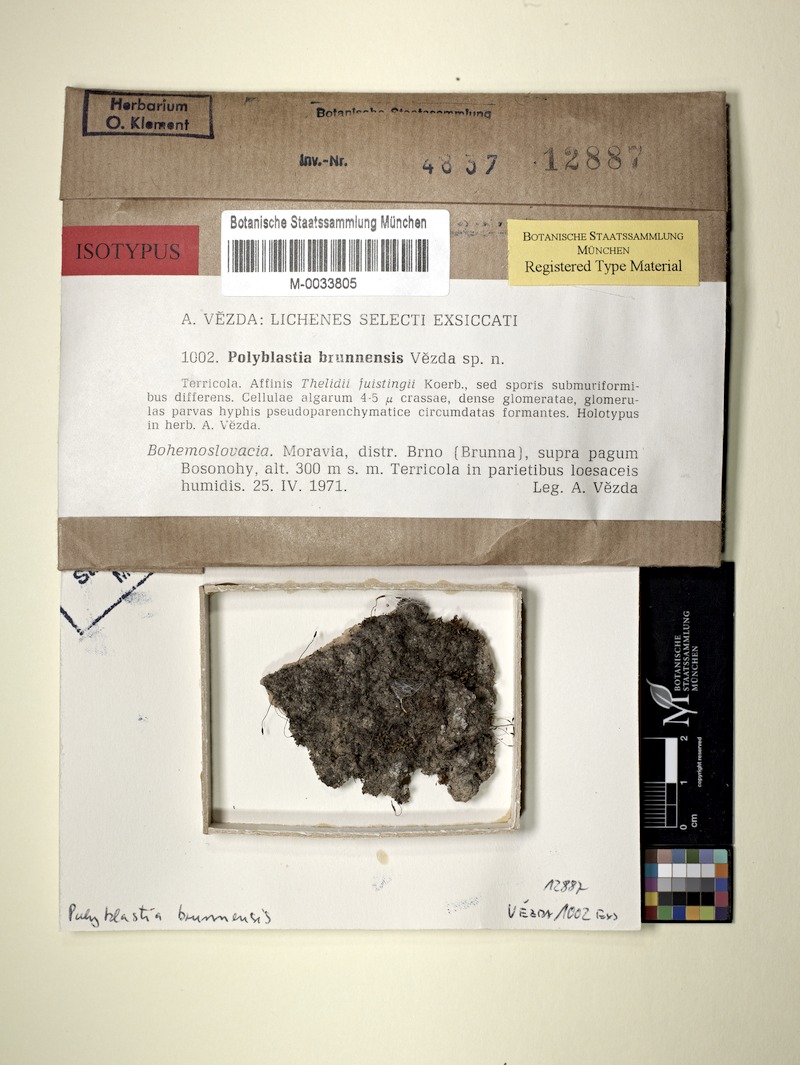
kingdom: Fungi
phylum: Ascomycota
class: Eurotiomycetes
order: Verrucariales
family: Verrucariaceae
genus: Polyblastia
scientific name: Polyblastia
